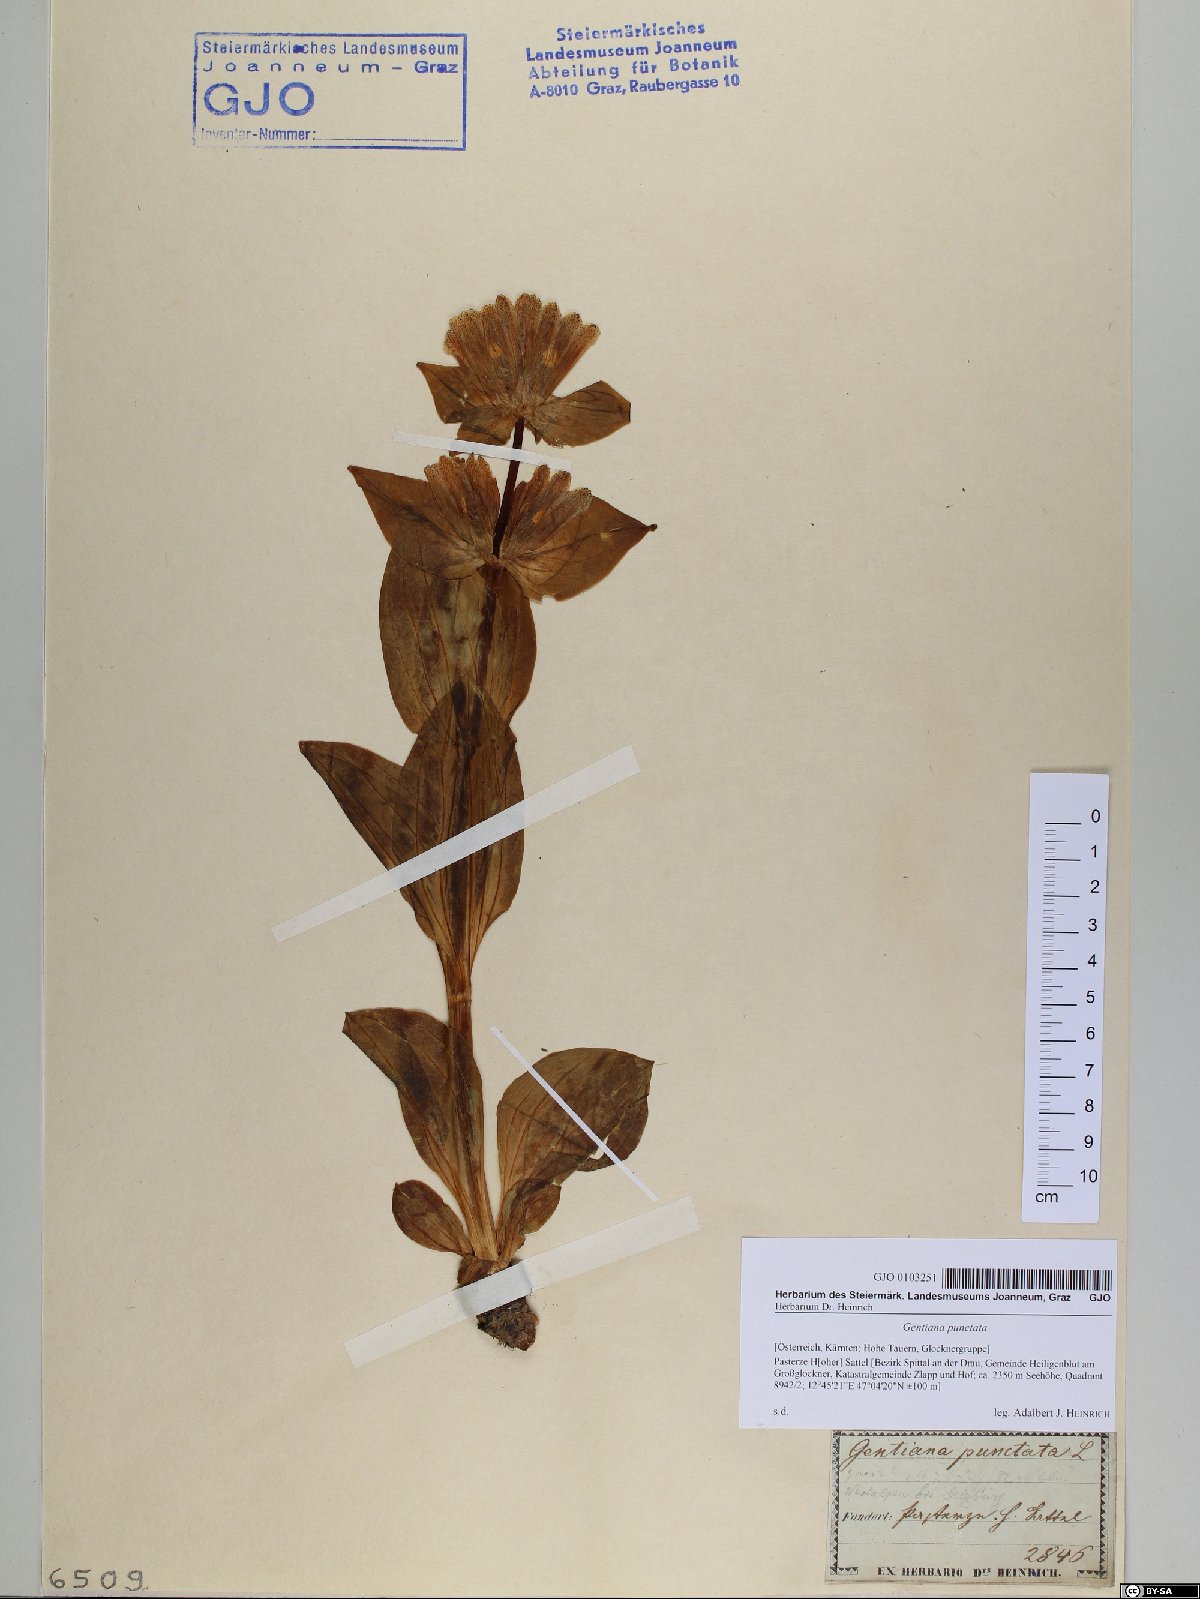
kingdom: Plantae
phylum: Tracheophyta
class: Magnoliopsida
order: Gentianales
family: Gentianaceae
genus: Gentiana
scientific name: Gentiana punctata
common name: Spotted gentian
